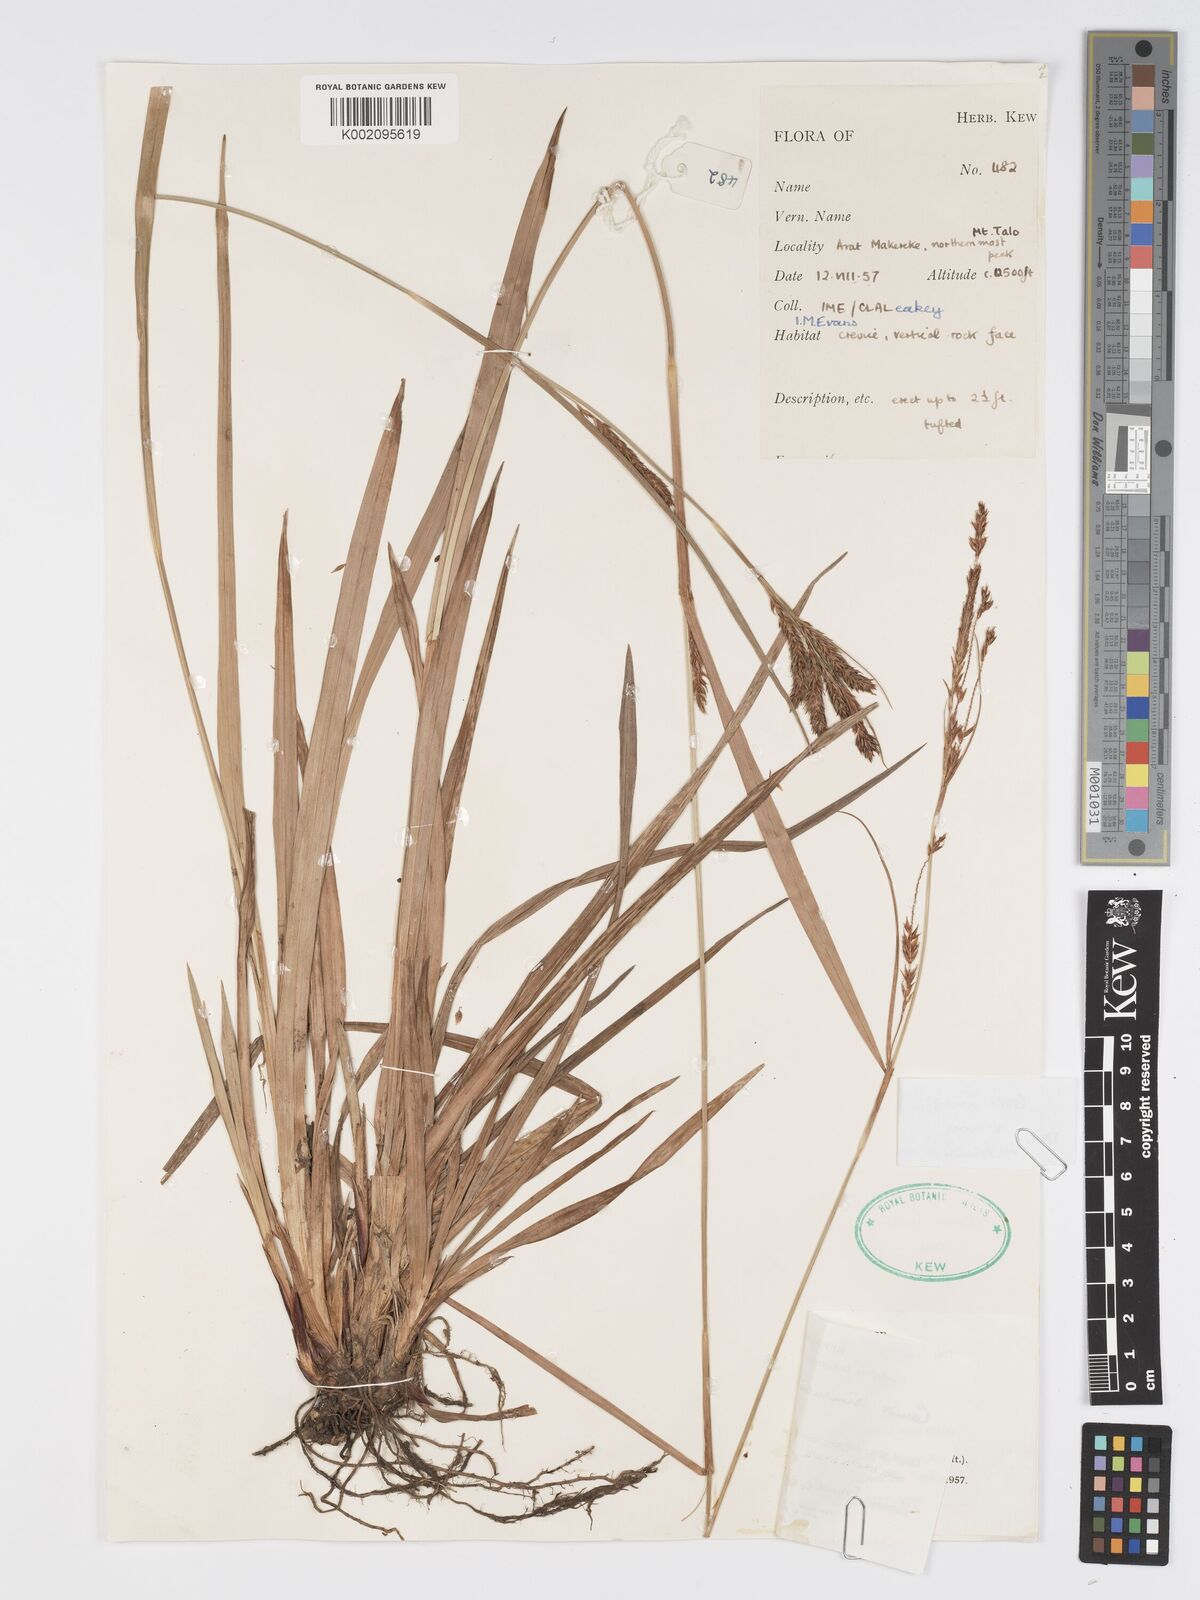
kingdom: Plantae
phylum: Tracheophyta
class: Liliopsida
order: Poales
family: Cyperaceae
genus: Carex
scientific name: Carex simensis
